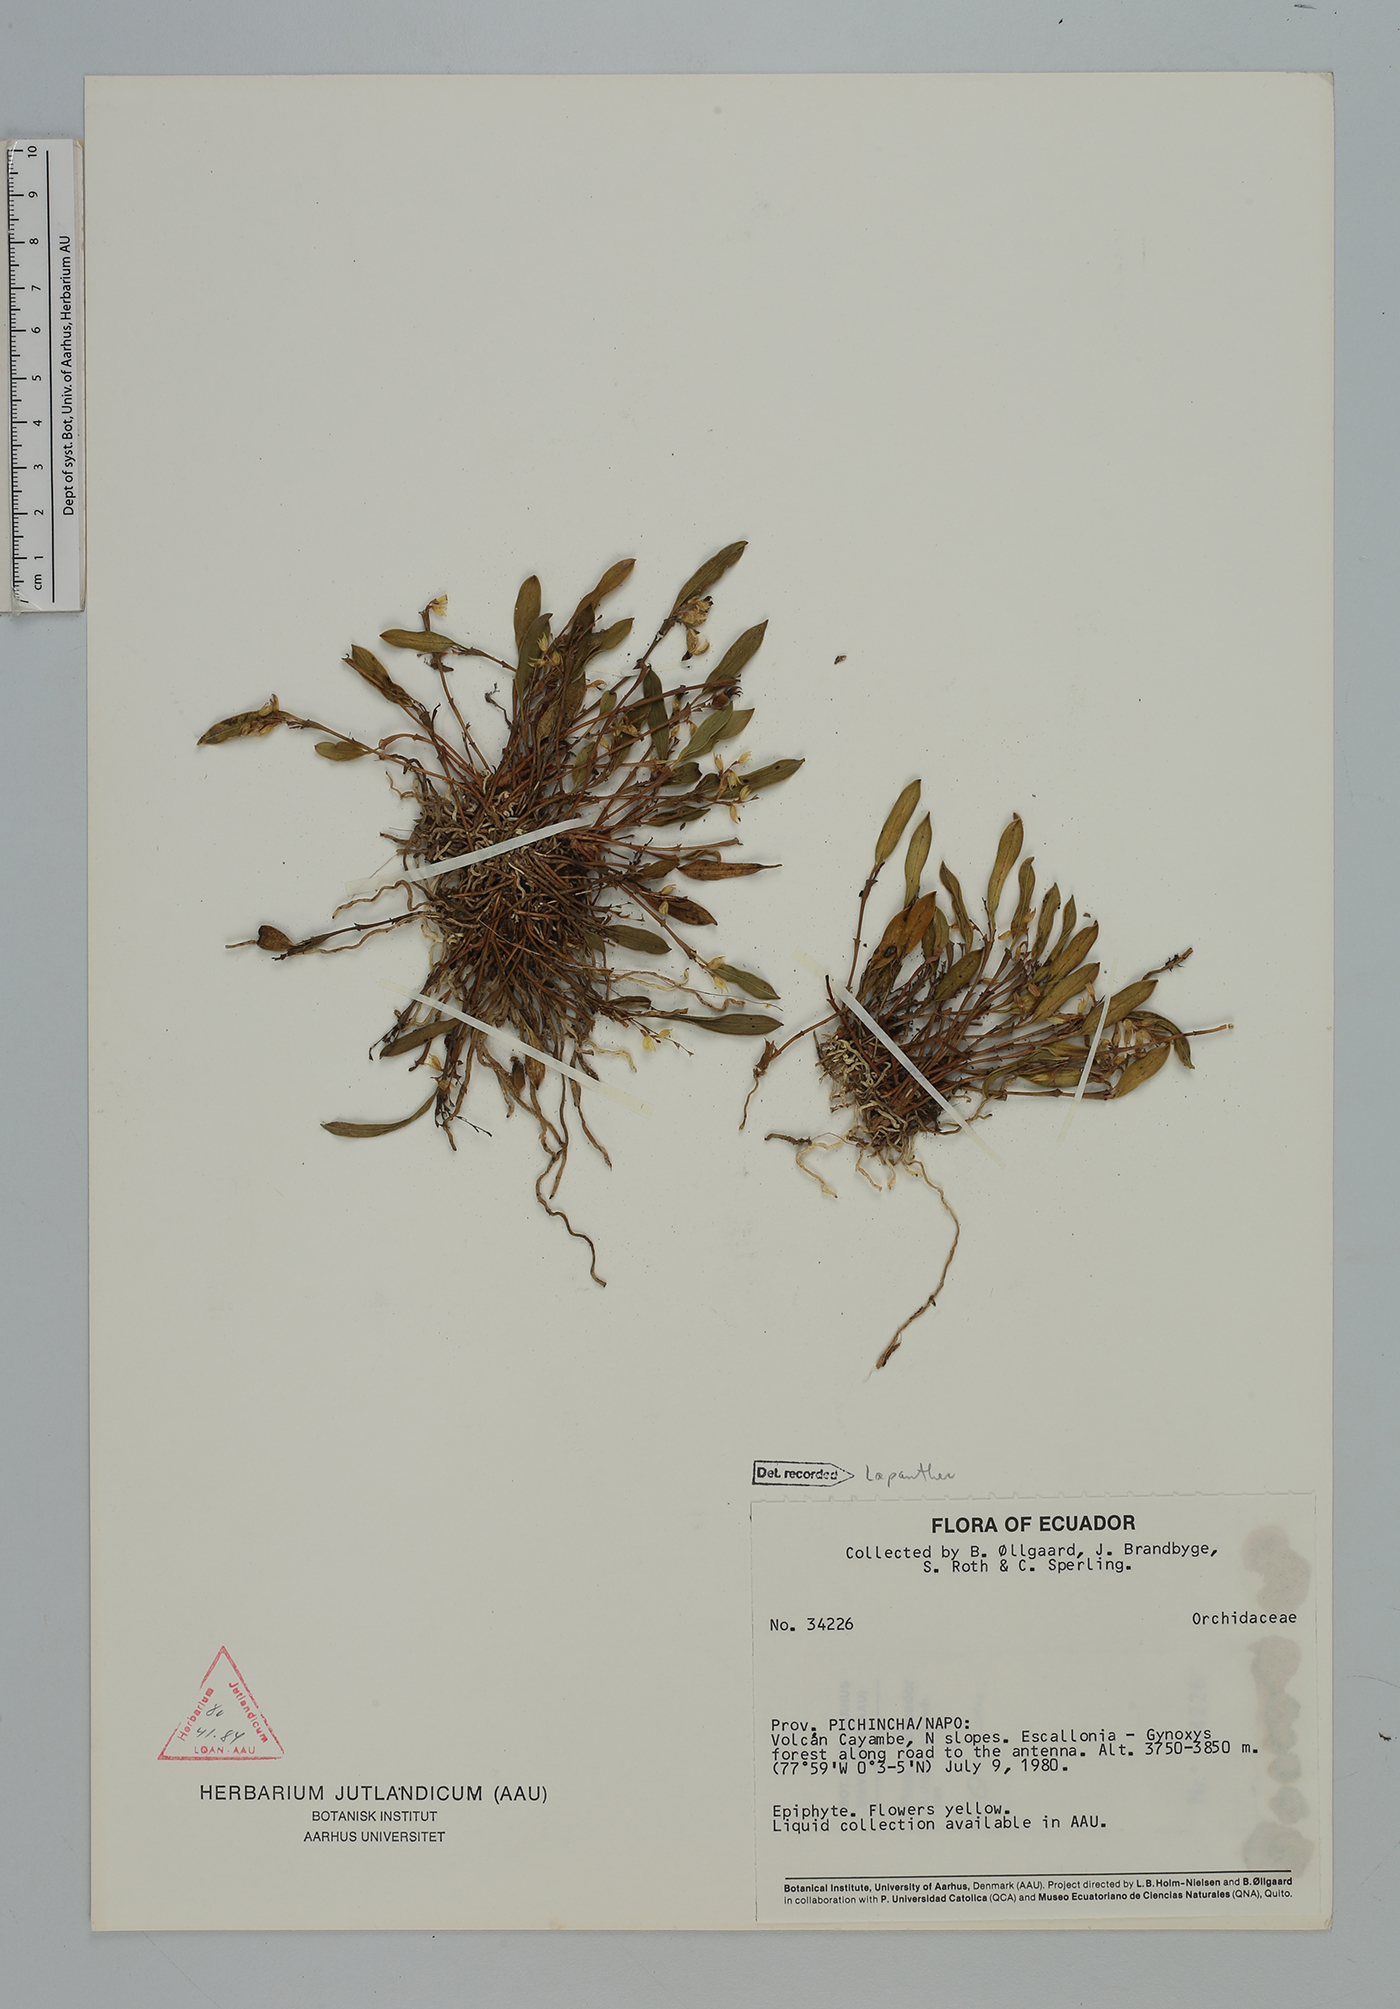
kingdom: Plantae
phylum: Tracheophyta
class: Liliopsida
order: Asparagales
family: Orchidaceae
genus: Trichosalpinx
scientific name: Trichosalpinx
